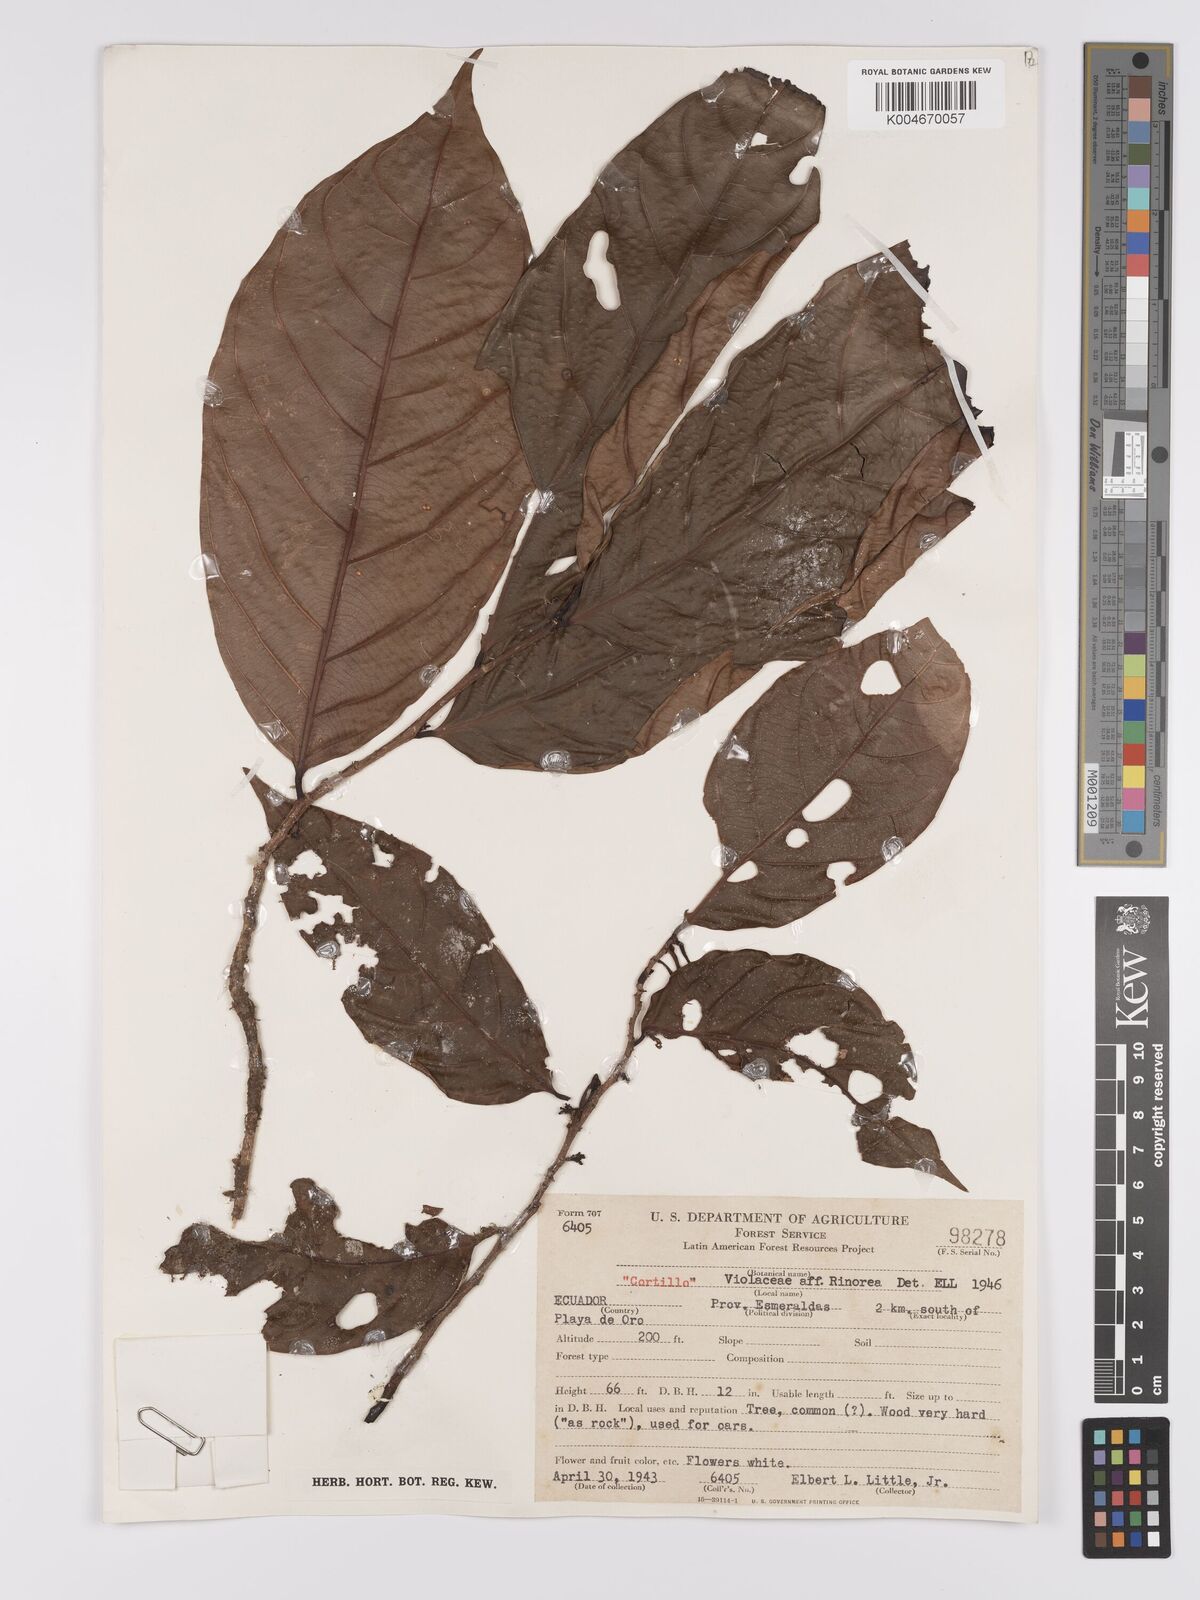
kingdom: Plantae
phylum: Tracheophyta
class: Magnoliopsida
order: Malpighiales
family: Violaceae
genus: Rinorea
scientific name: Rinorea
